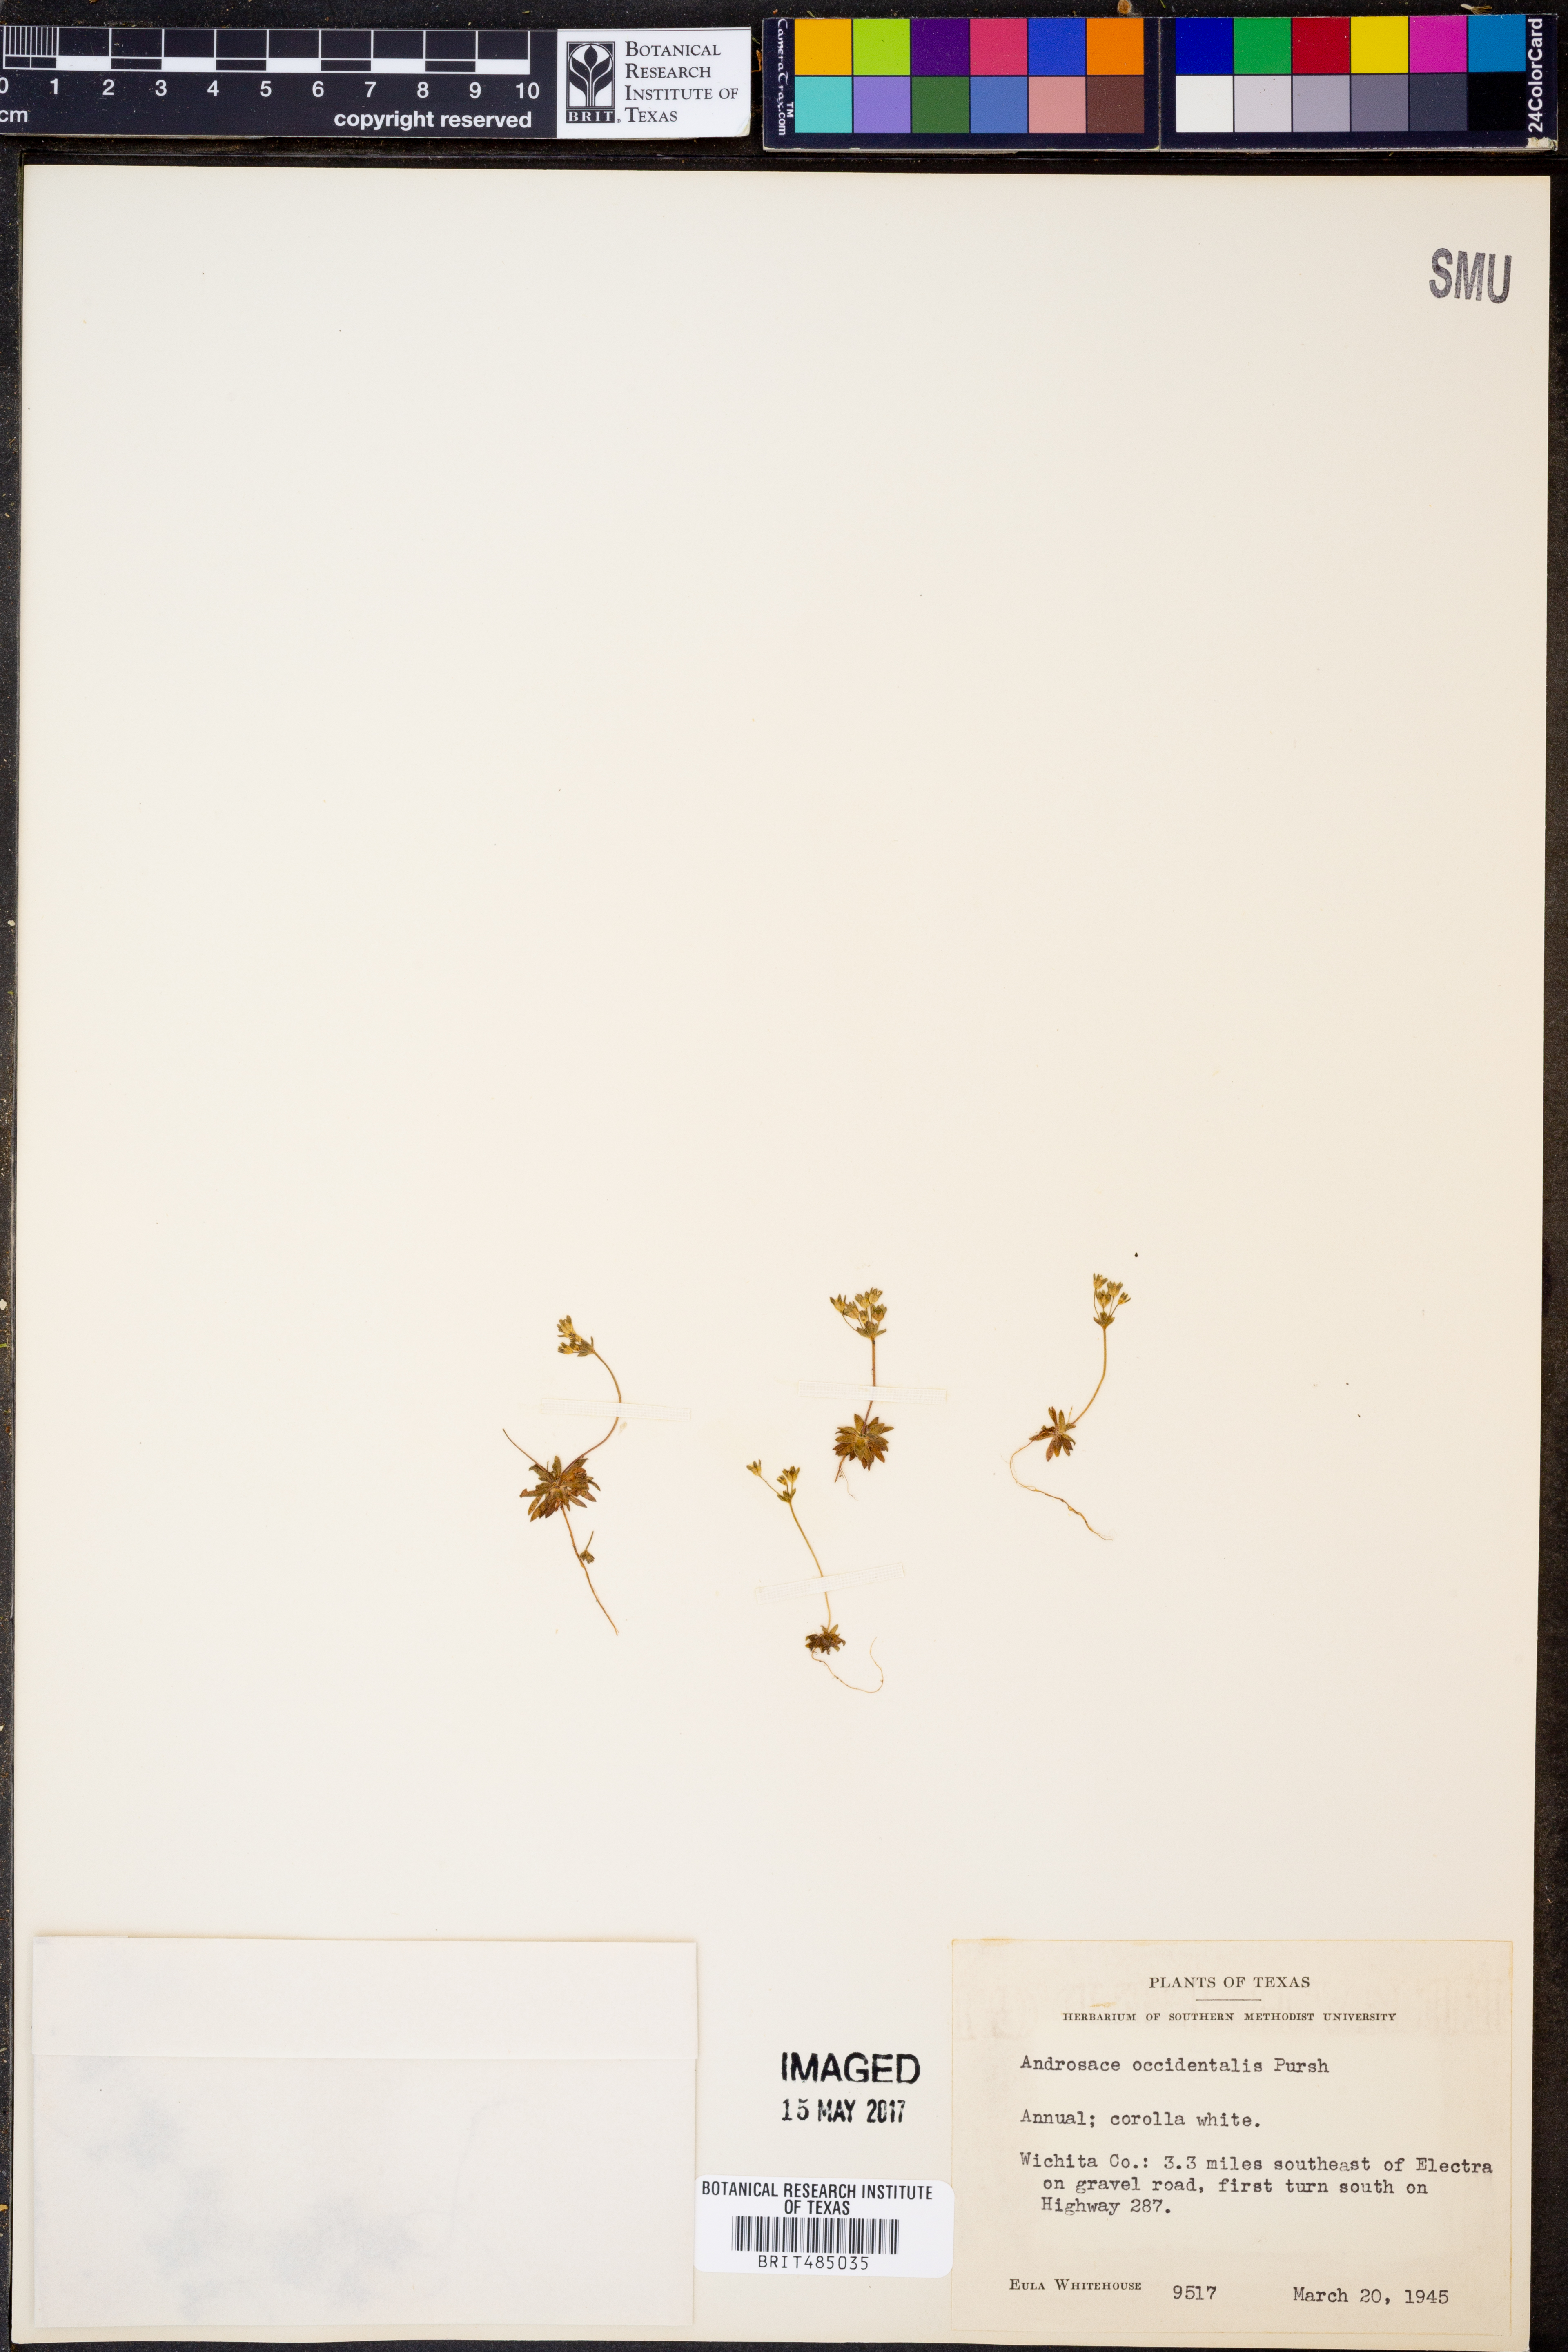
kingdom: Plantae
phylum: Tracheophyta
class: Magnoliopsida
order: Ericales
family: Primulaceae
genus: Androsace
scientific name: Androsace occidentalis
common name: West rock-jasmine
